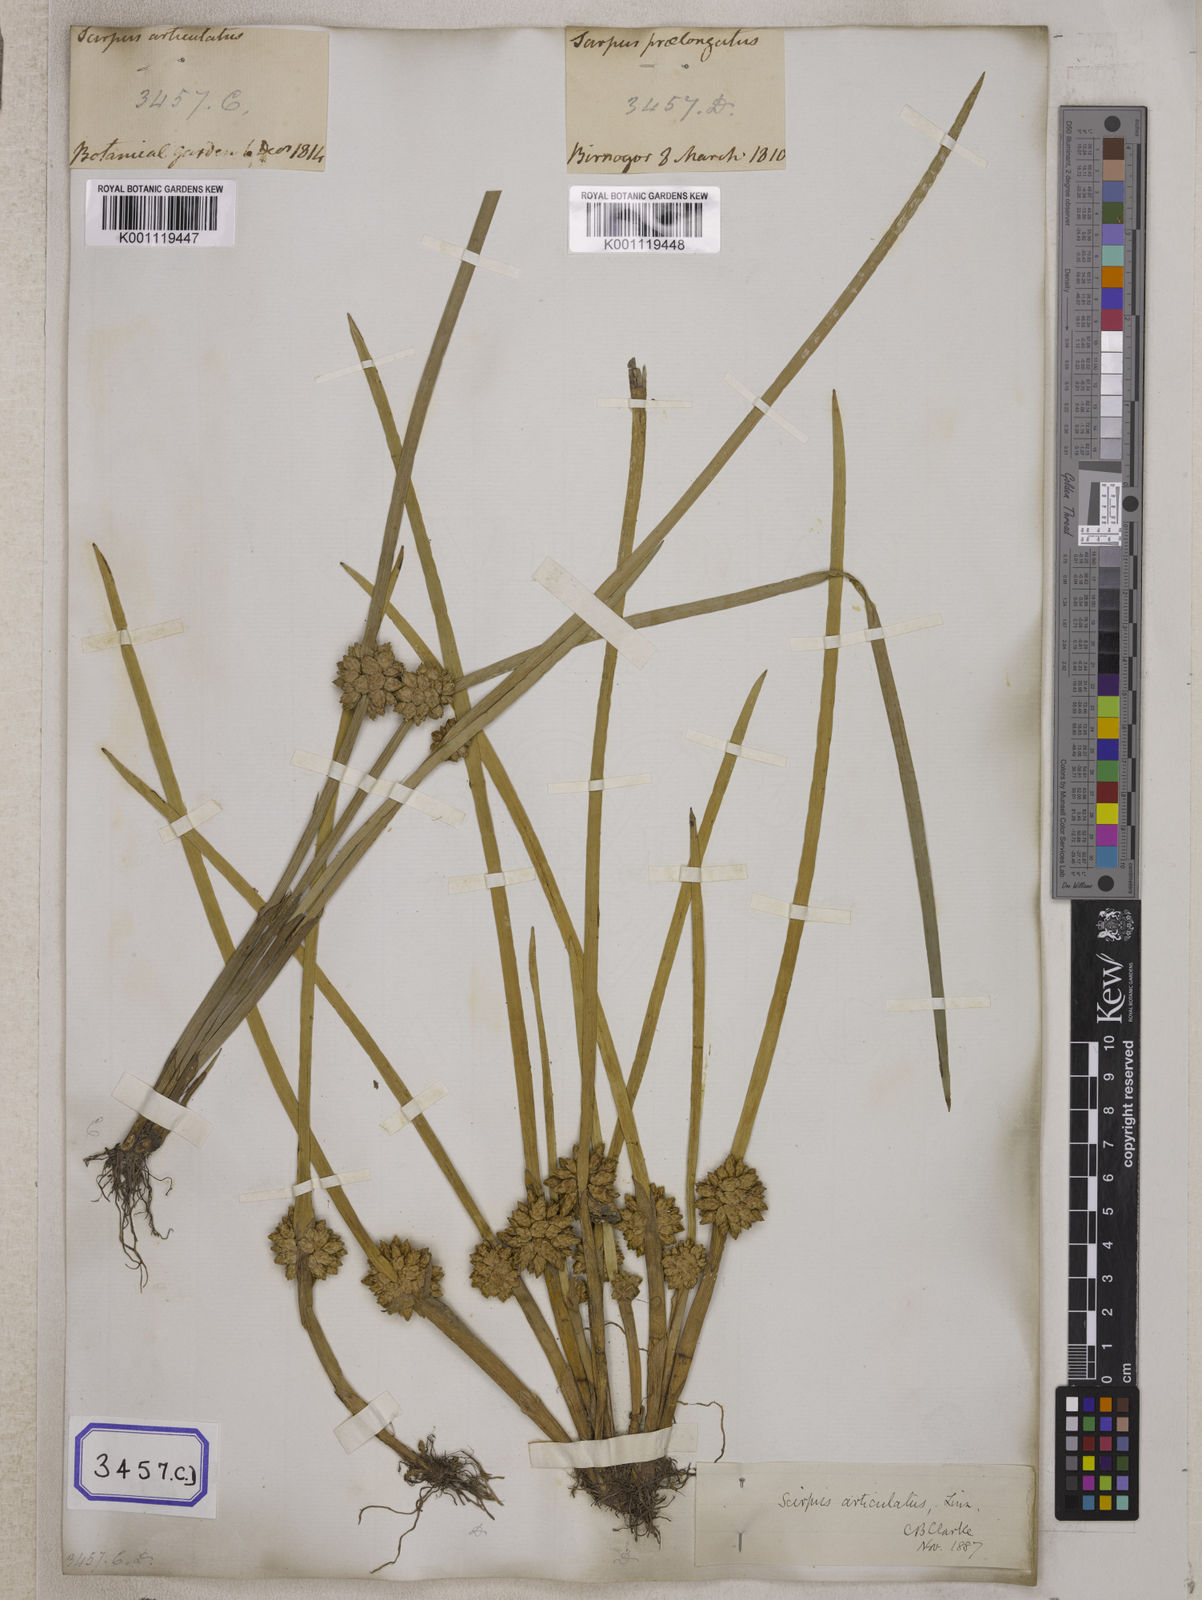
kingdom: Plantae
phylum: Tracheophyta
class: Liliopsida
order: Poales
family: Cyperaceae
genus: Scirpus
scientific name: Scirpus
